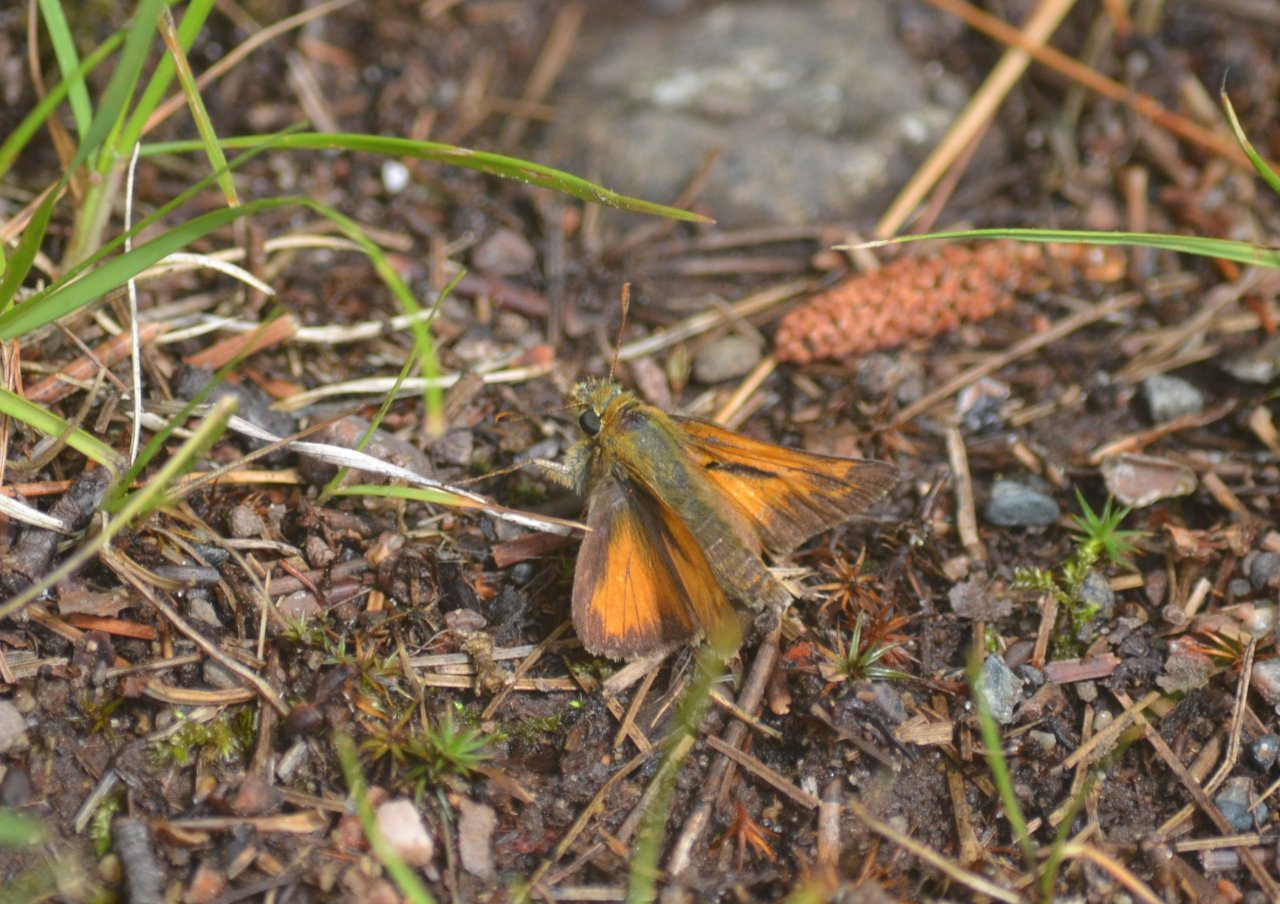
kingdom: Animalia
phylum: Arthropoda
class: Insecta
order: Lepidoptera
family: Hesperiidae
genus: Hesperia
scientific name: Hesperia sassacus
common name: Sassacus Skipper
